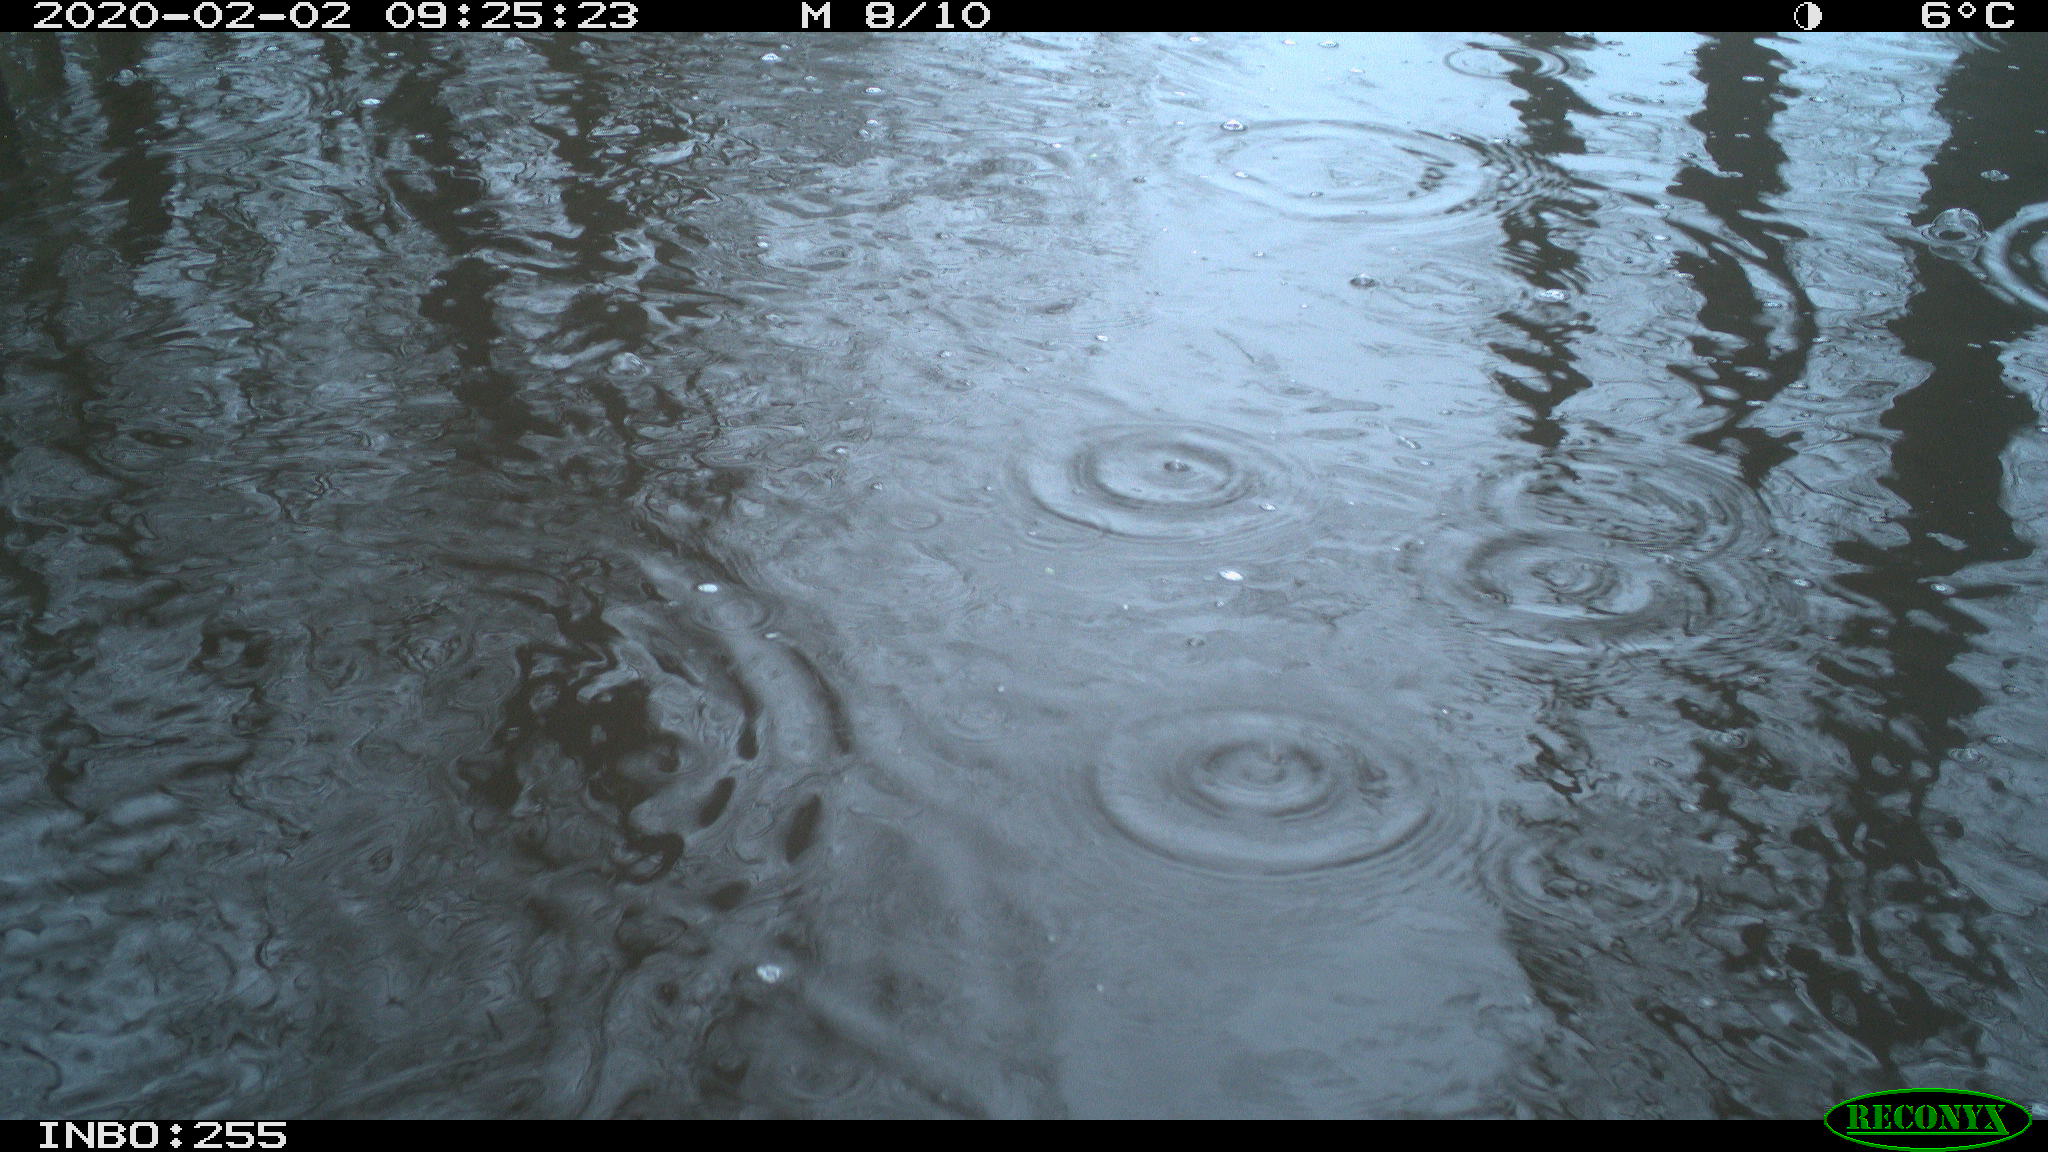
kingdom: Animalia
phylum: Chordata
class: Aves
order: Gruiformes
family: Rallidae
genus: Fulica
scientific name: Fulica atra
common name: Eurasian coot
